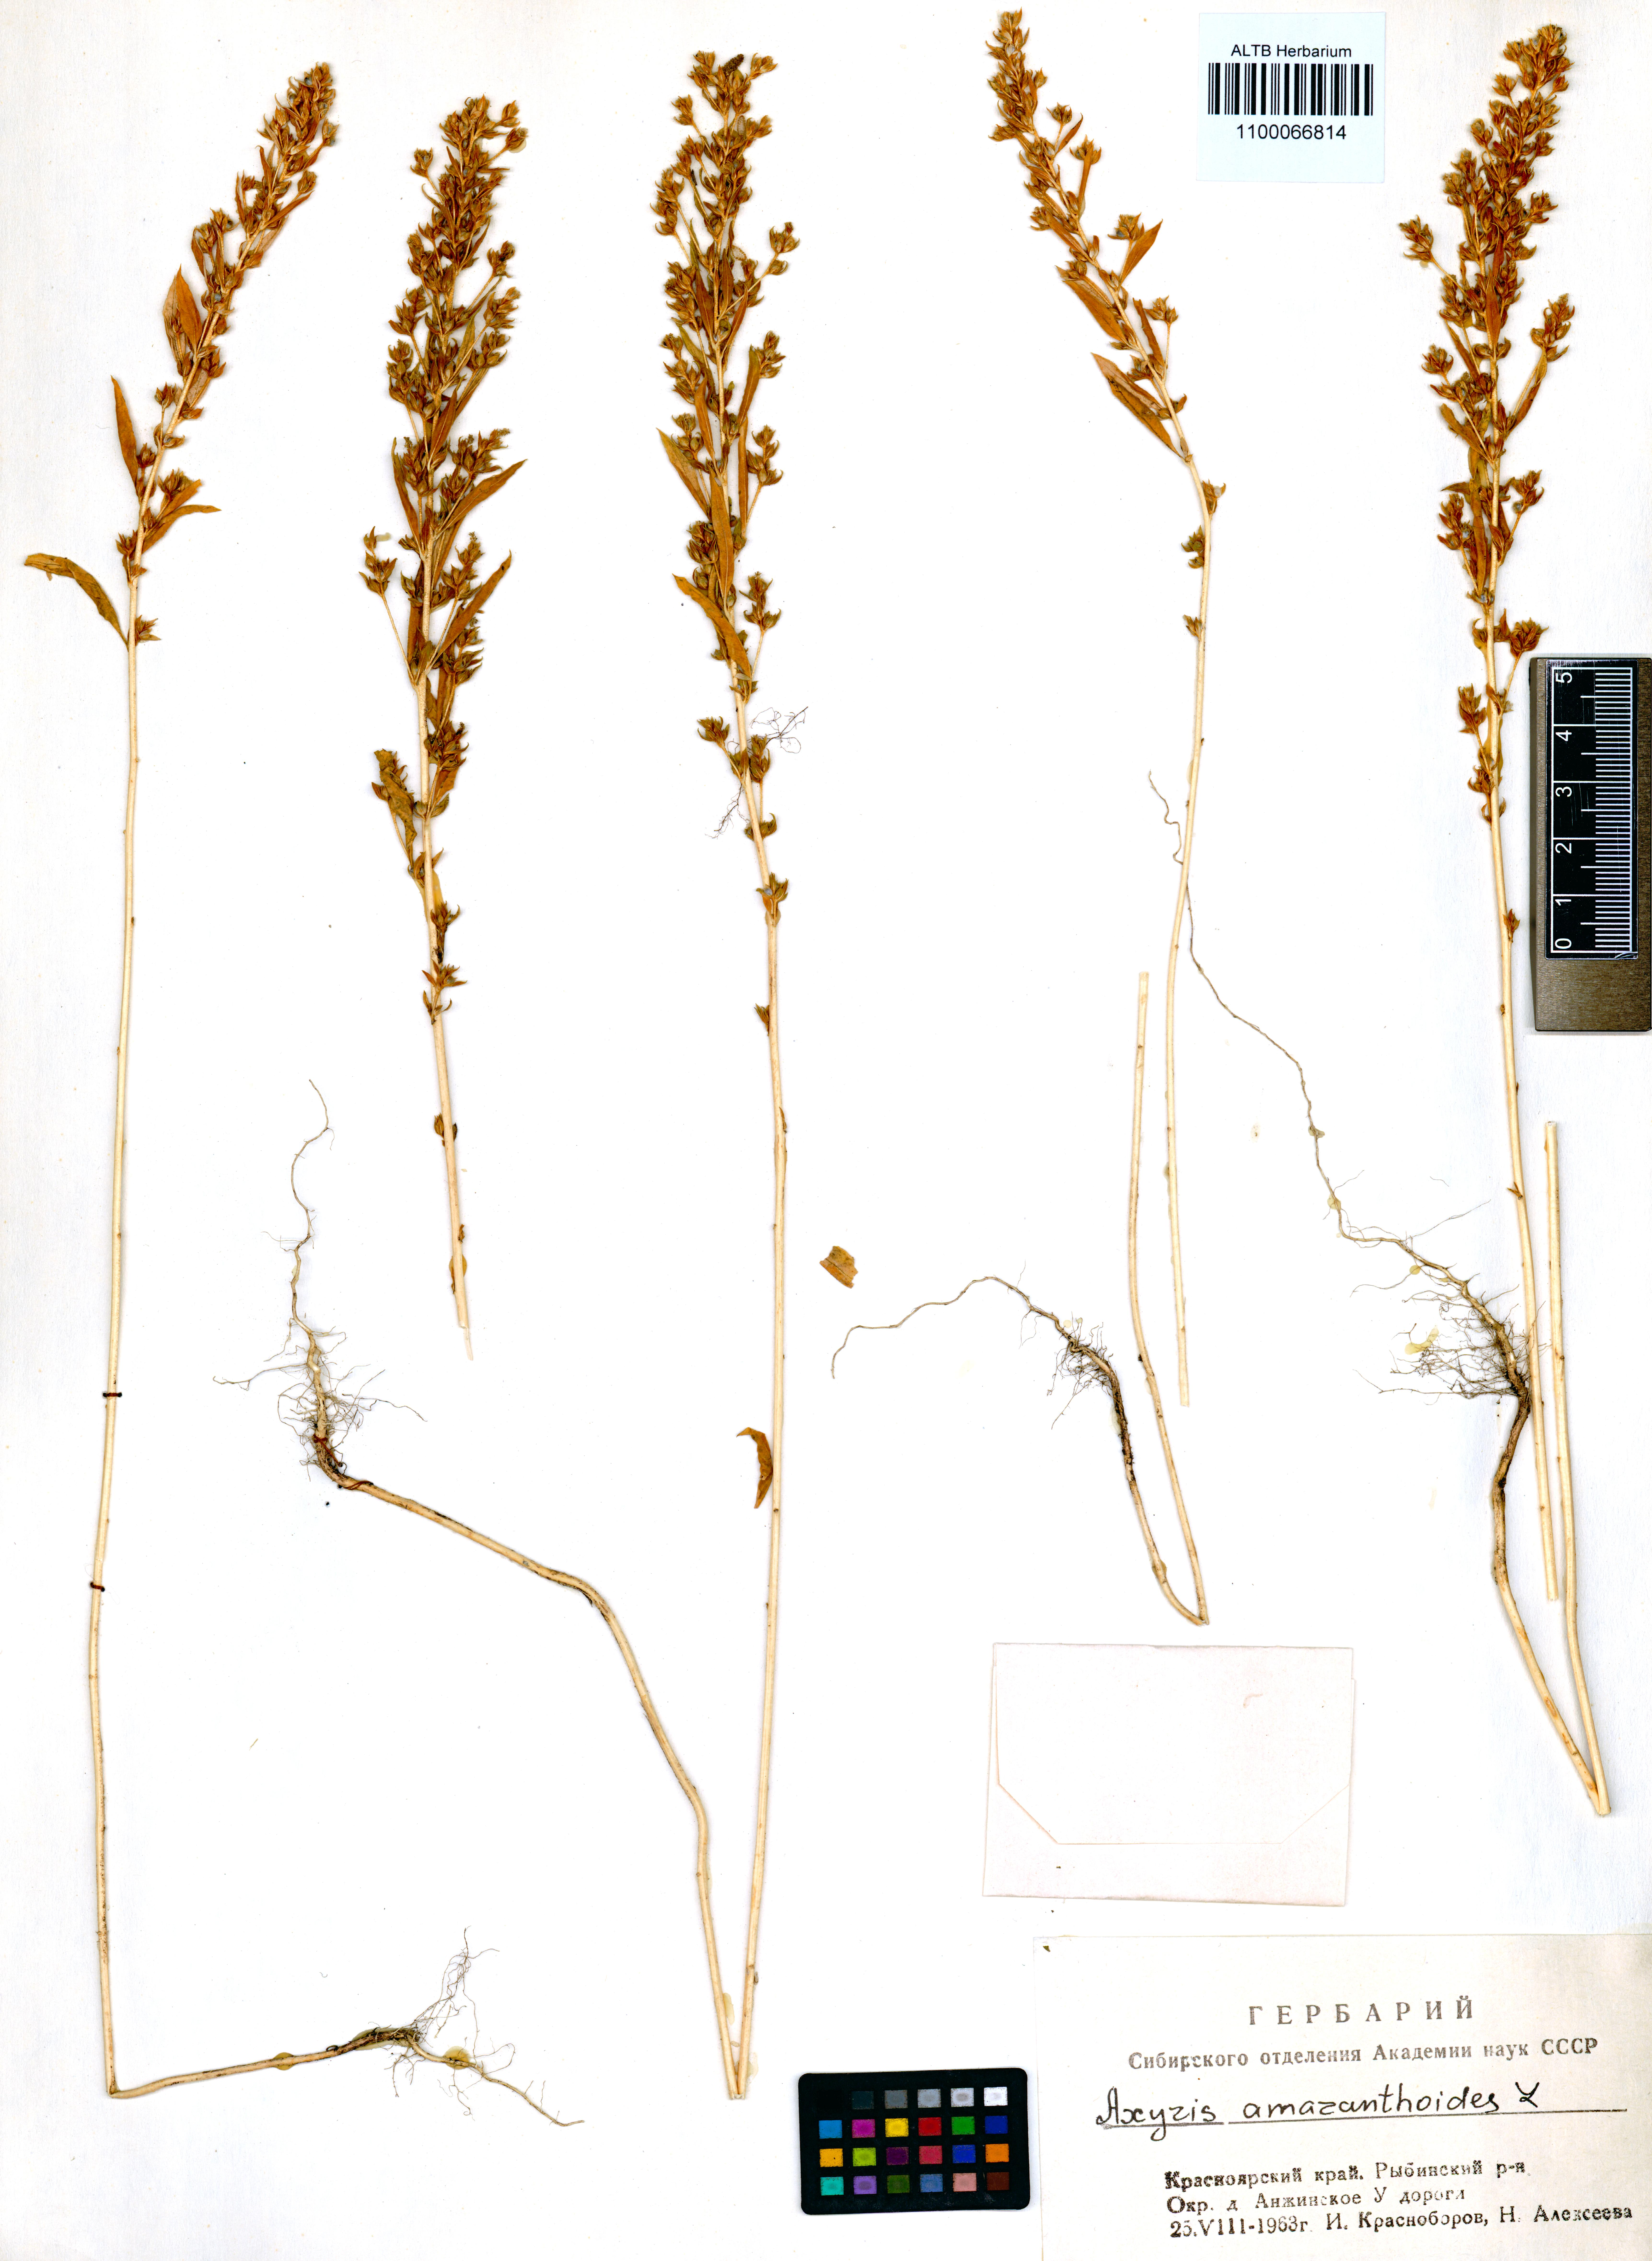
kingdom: Plantae
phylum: Tracheophyta
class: Magnoliopsida
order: Caryophyllales
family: Amaranthaceae
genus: Axyris
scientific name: Axyris amaranthoides
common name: Russian pigweed
